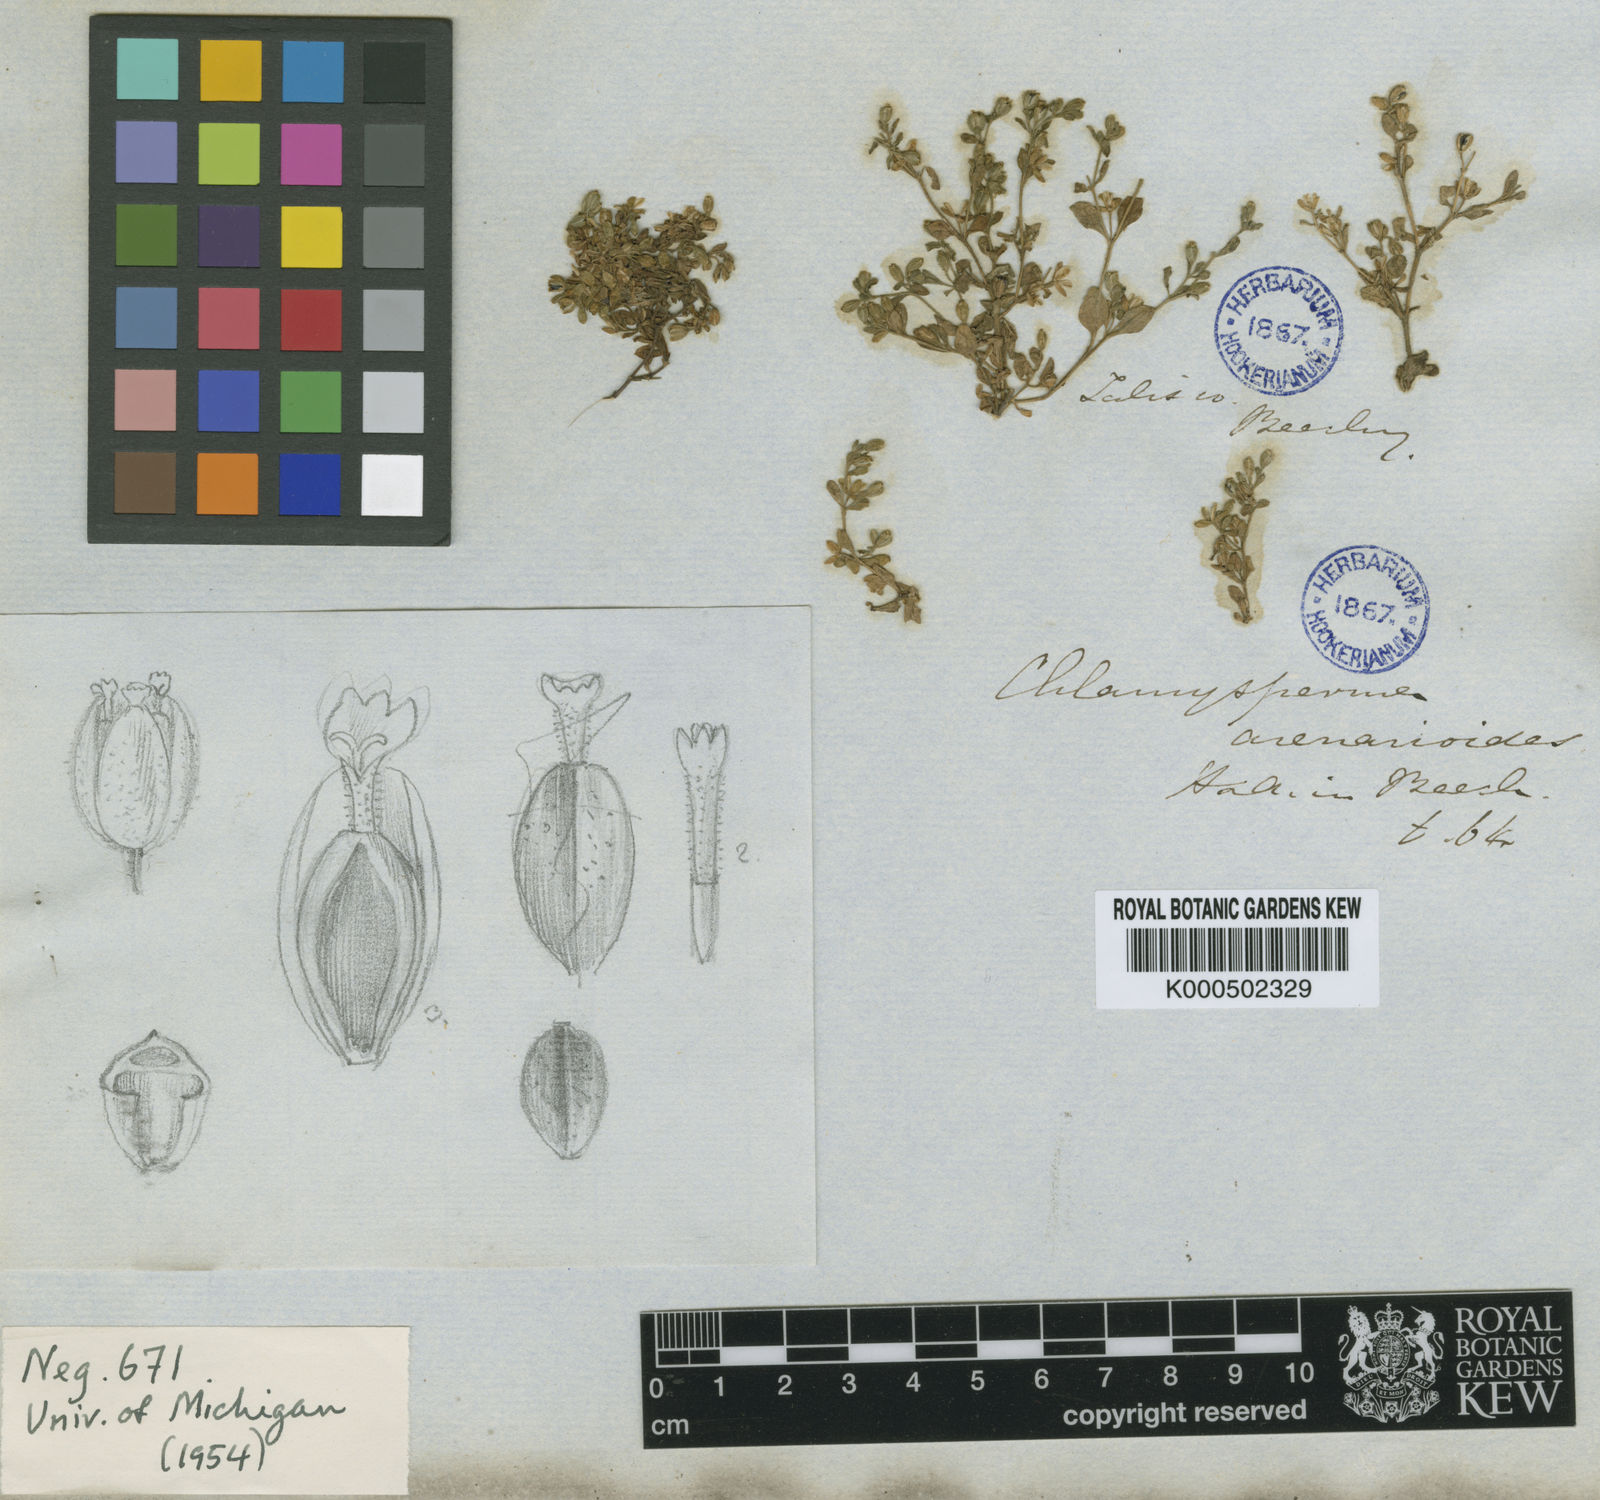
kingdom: Plantae
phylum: Tracheophyta
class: Magnoliopsida
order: Asterales
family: Asteraceae
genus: Galeana
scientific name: Galeana pratensis
